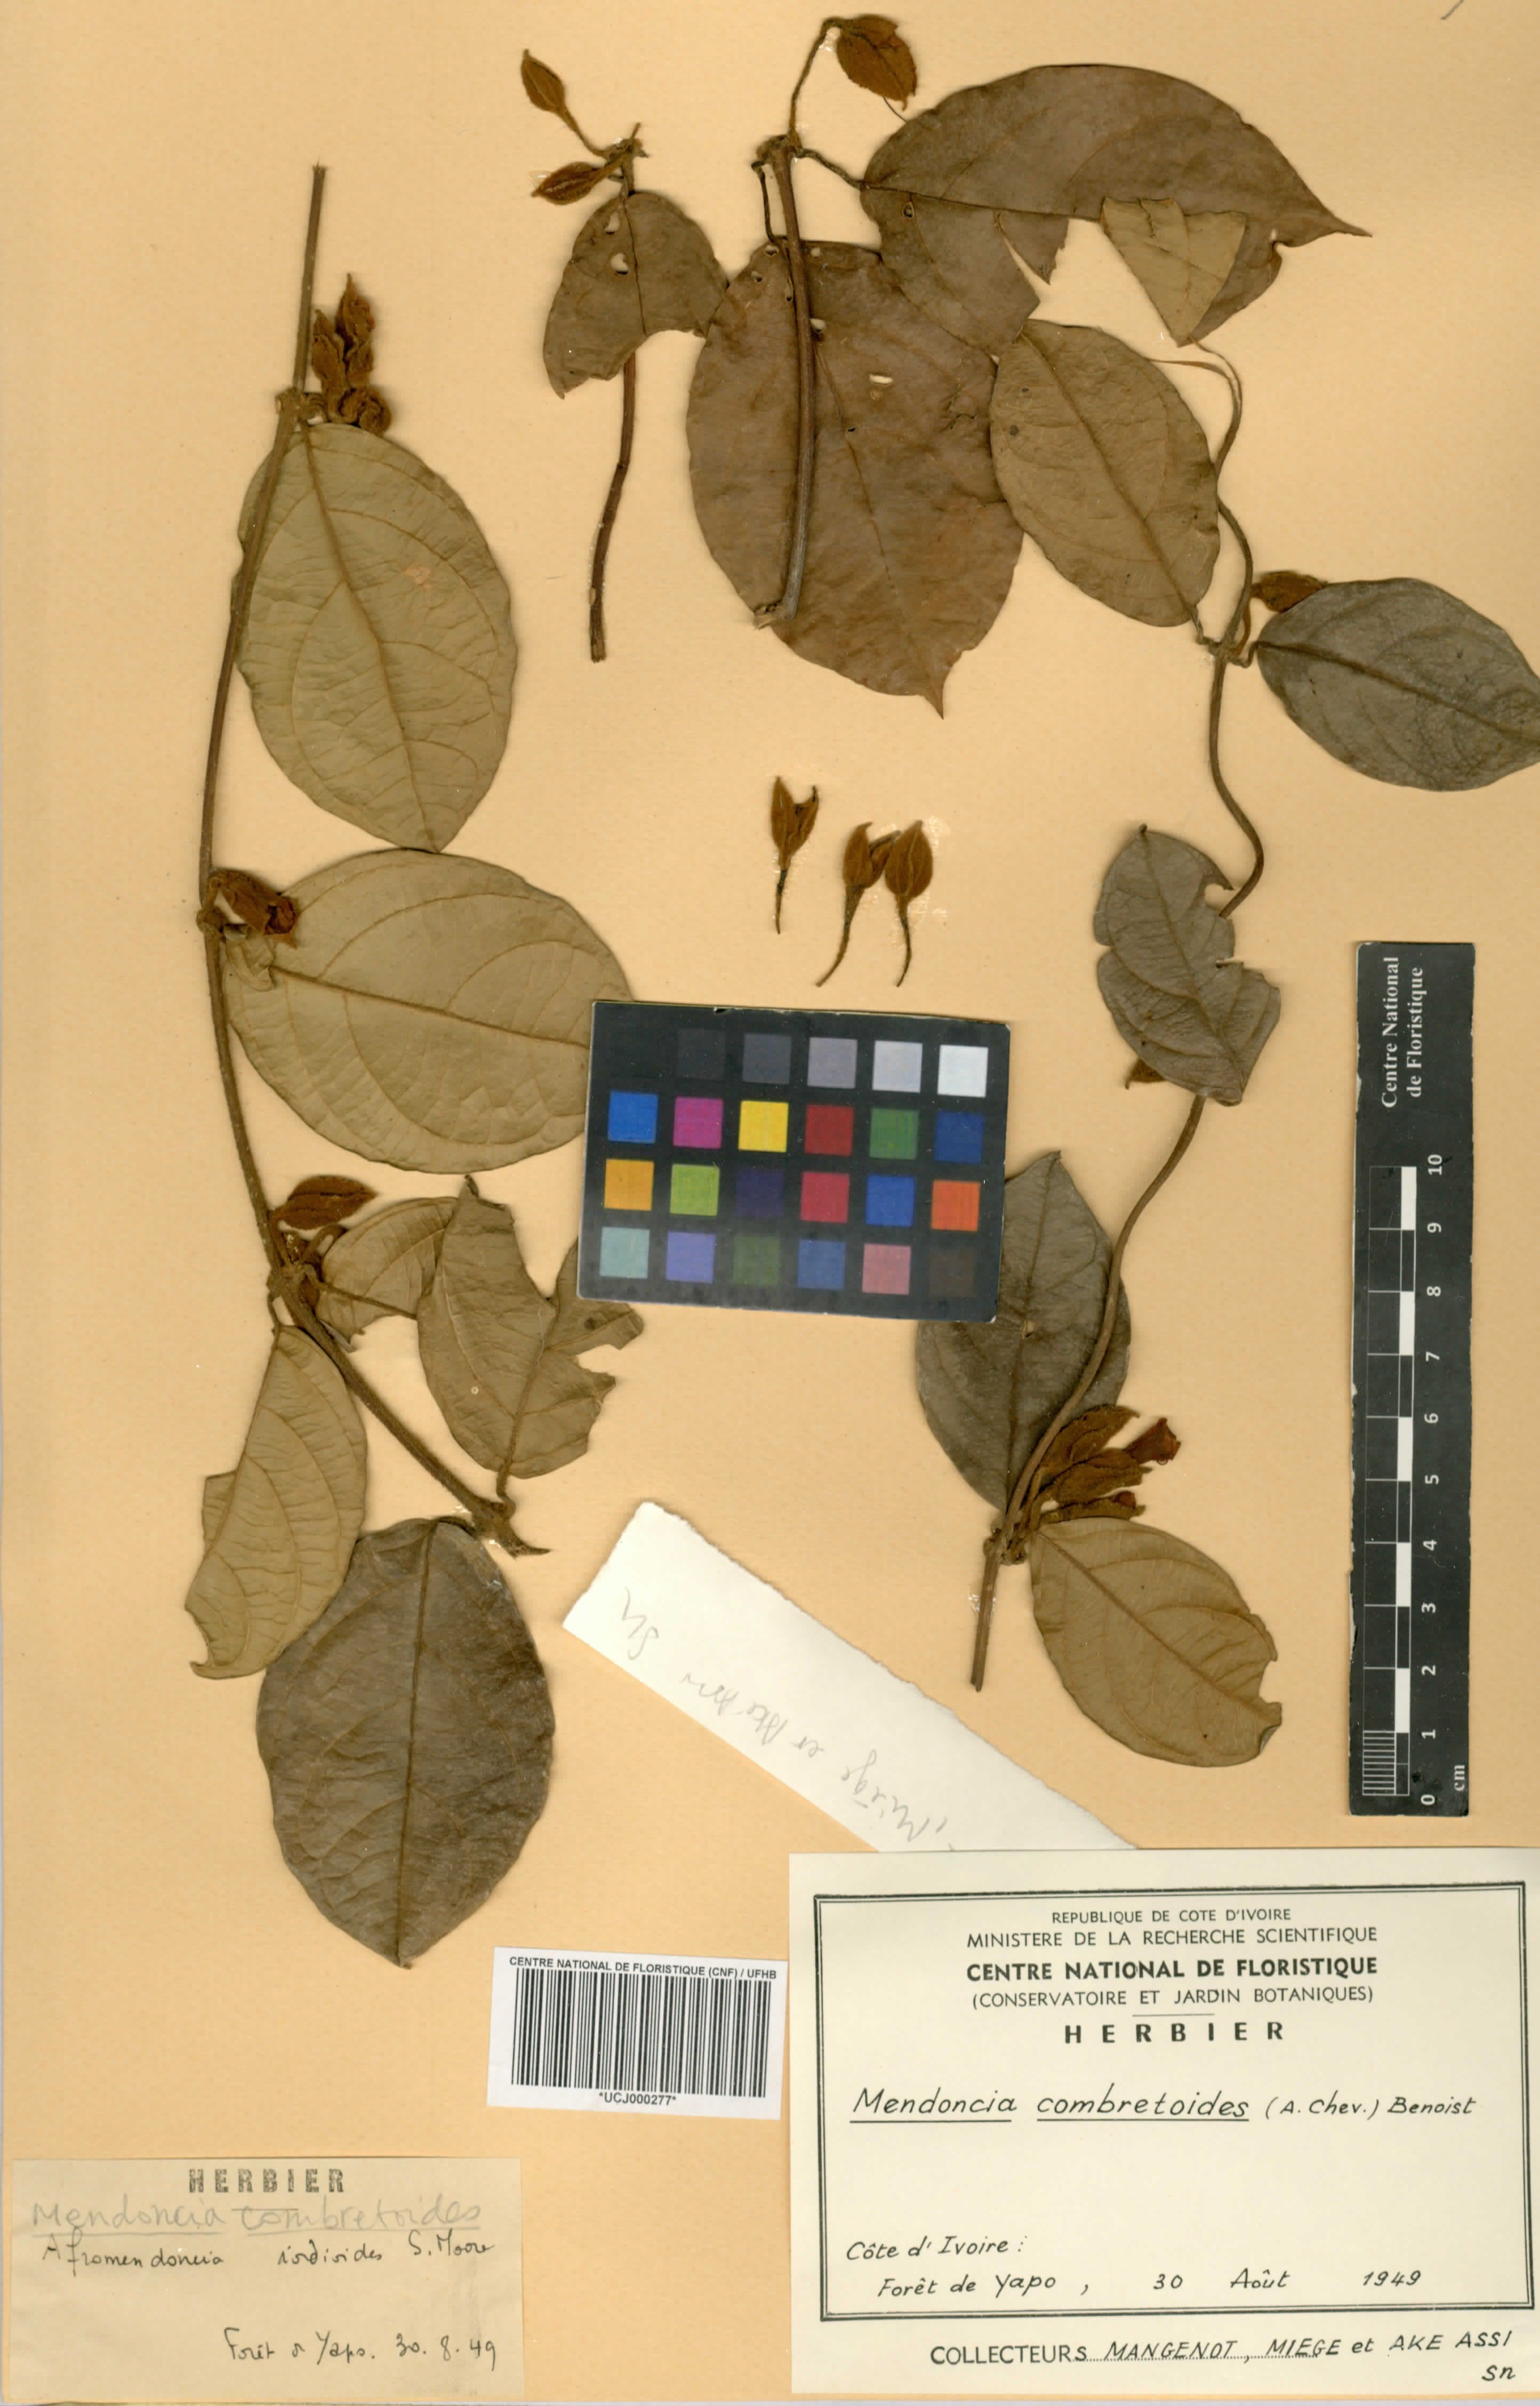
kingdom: Plantae
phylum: Tracheophyta
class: Magnoliopsida
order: Lamiales
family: Acanthaceae
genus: Mendoncia
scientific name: Mendoncia combretoides
